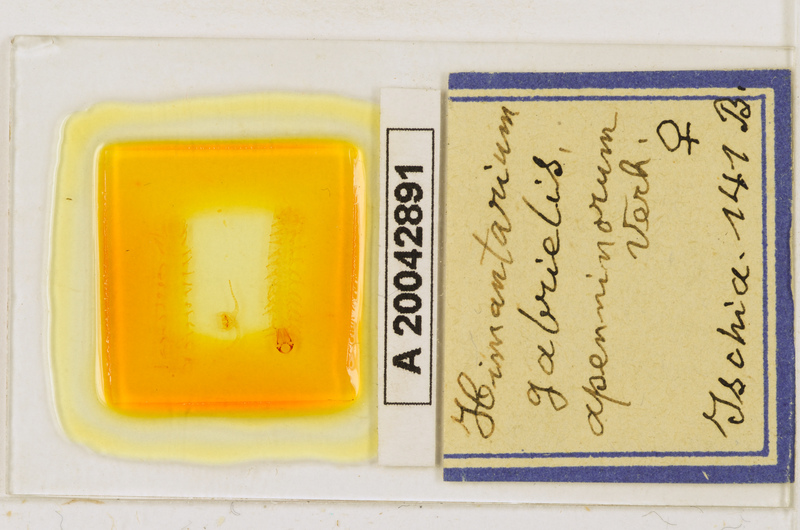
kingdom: Animalia
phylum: Arthropoda
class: Chilopoda
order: Geophilomorpha
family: Himantariidae
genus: Himantarium
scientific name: Himantarium gabrielis
